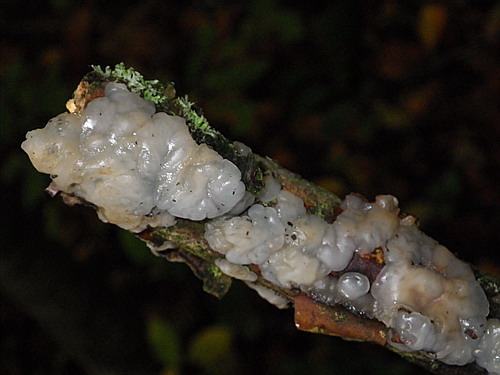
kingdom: Fungi
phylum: Basidiomycota
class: Agaricomycetes
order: Auriculariales
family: Auriculariaceae
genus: Exidia
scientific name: Exidia thuretiana
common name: hvidlig bævretop
